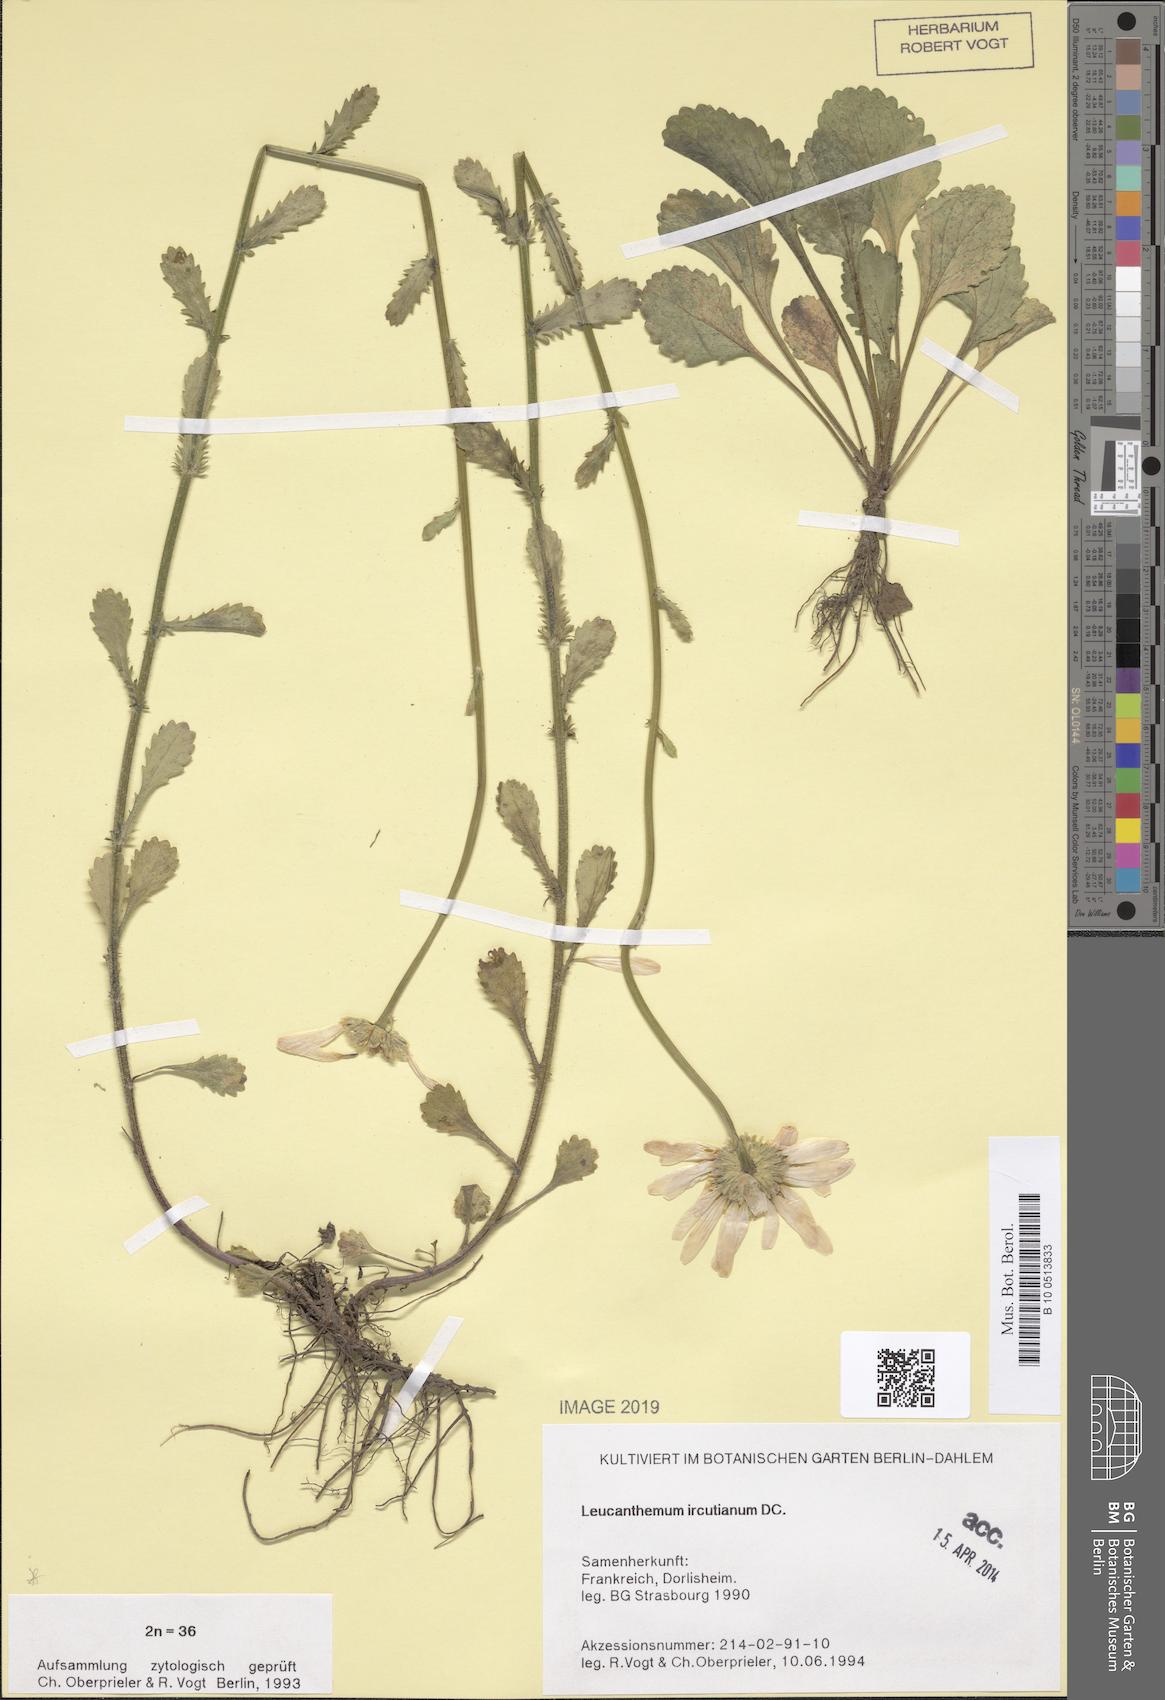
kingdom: Plantae
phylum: Tracheophyta
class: Magnoliopsida
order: Asterales
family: Asteraceae
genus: Leucanthemum
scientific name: Leucanthemum ircutianum
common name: Daisy
